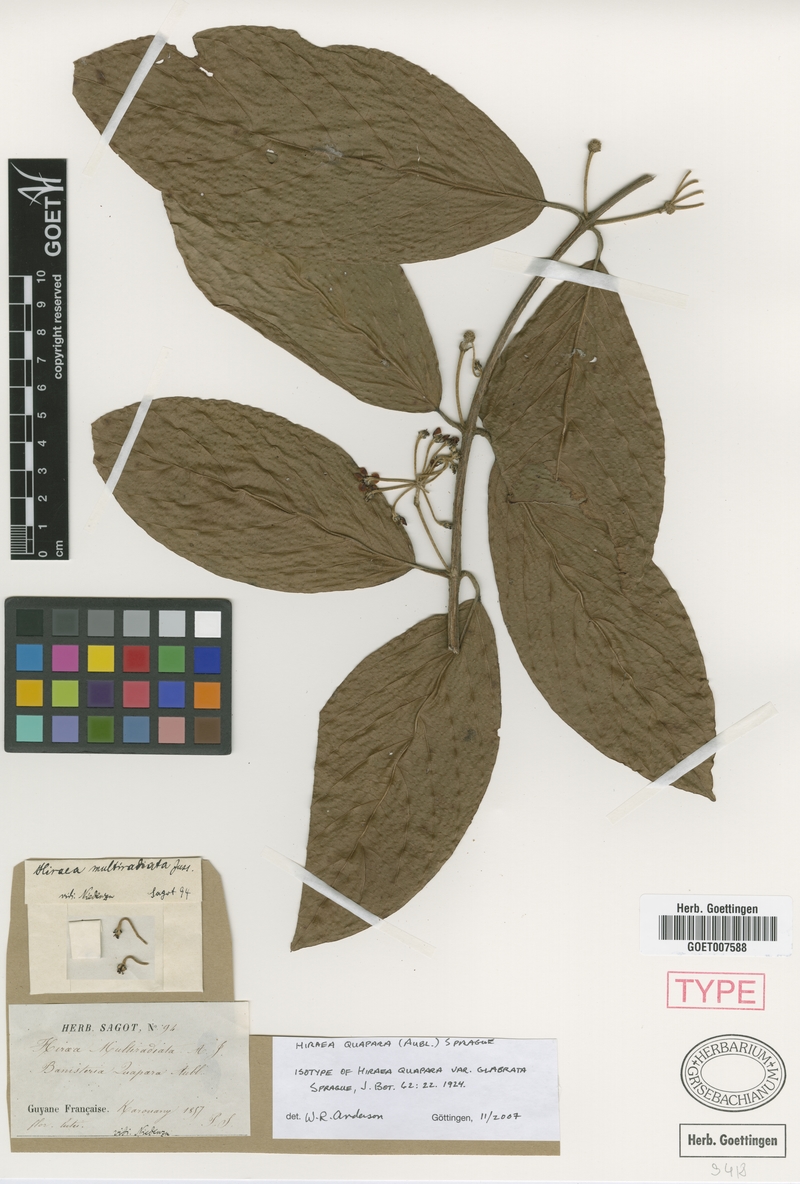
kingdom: Plantae
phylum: Tracheophyta
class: Magnoliopsida
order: Malpighiales
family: Malpighiaceae
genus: Hiraea
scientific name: Hiraea quapara
